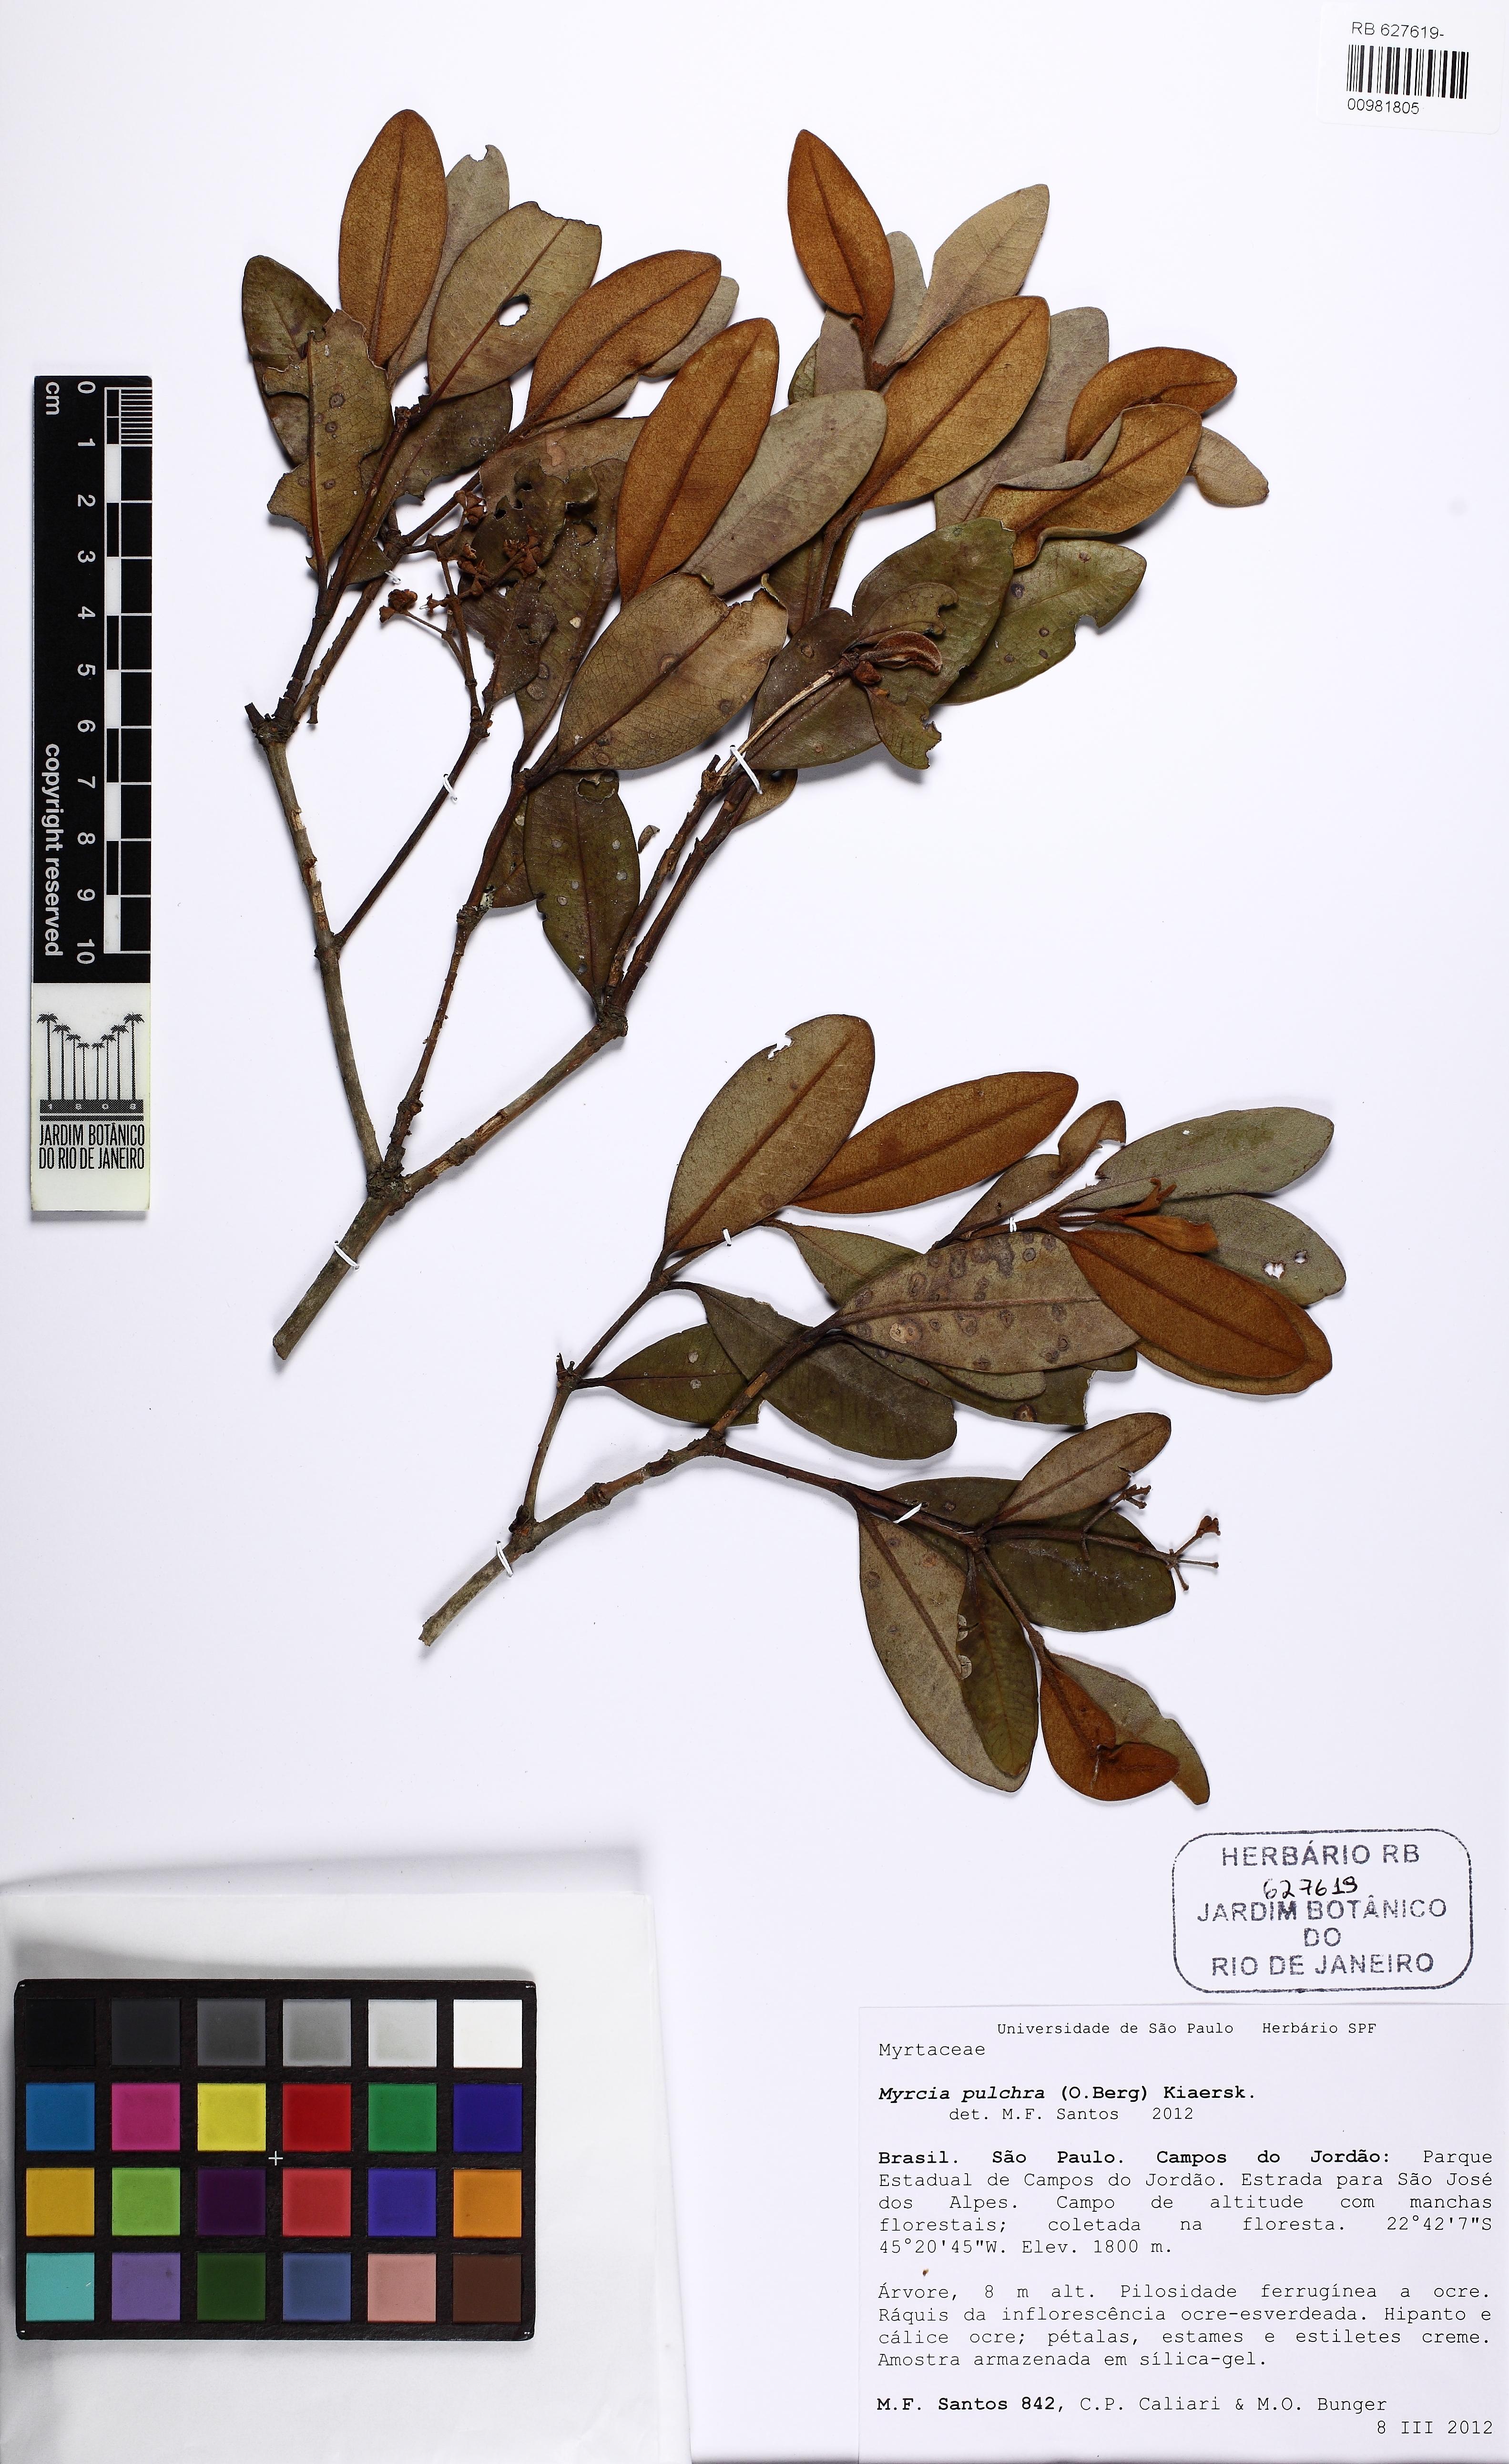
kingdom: Plantae
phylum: Tracheophyta
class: Magnoliopsida
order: Myrtales
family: Myrtaceae
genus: Myrcia
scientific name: Myrcia pulchra
